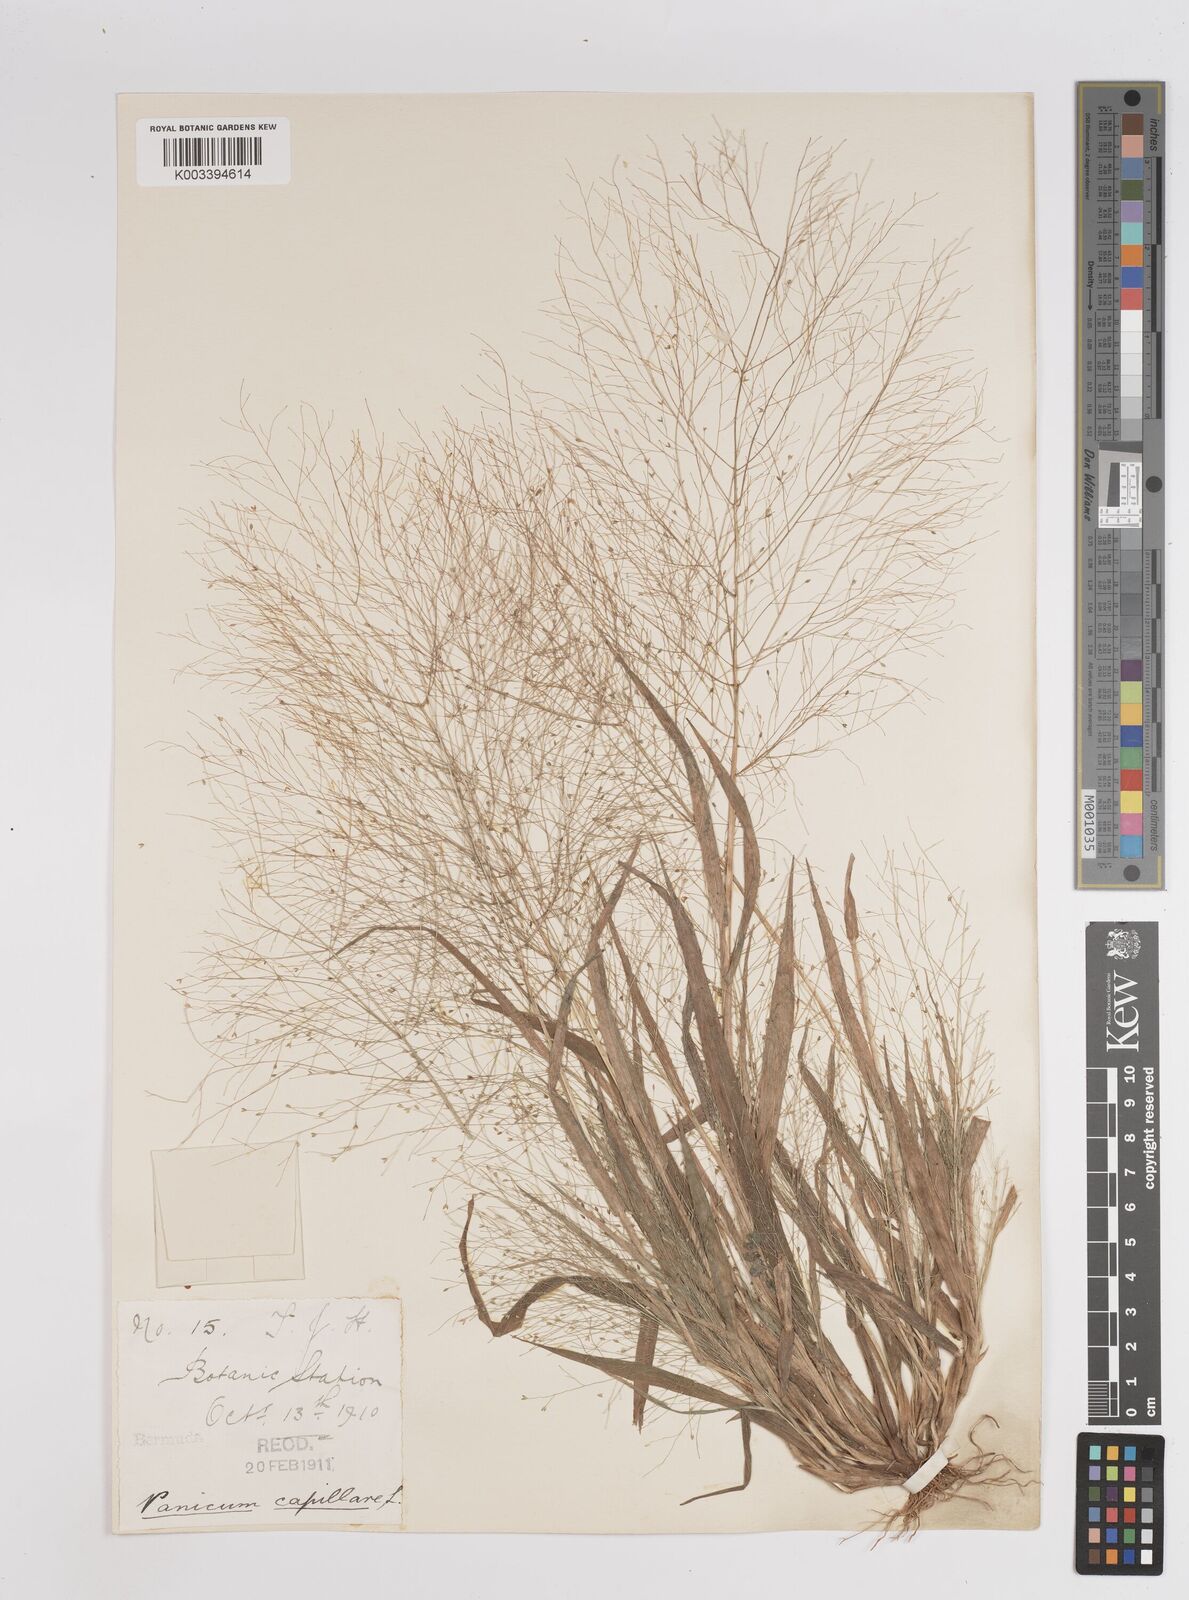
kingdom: Plantae
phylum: Tracheophyta
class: Liliopsida
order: Poales
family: Poaceae
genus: Panicum
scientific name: Panicum capillare
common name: Witch-grass
